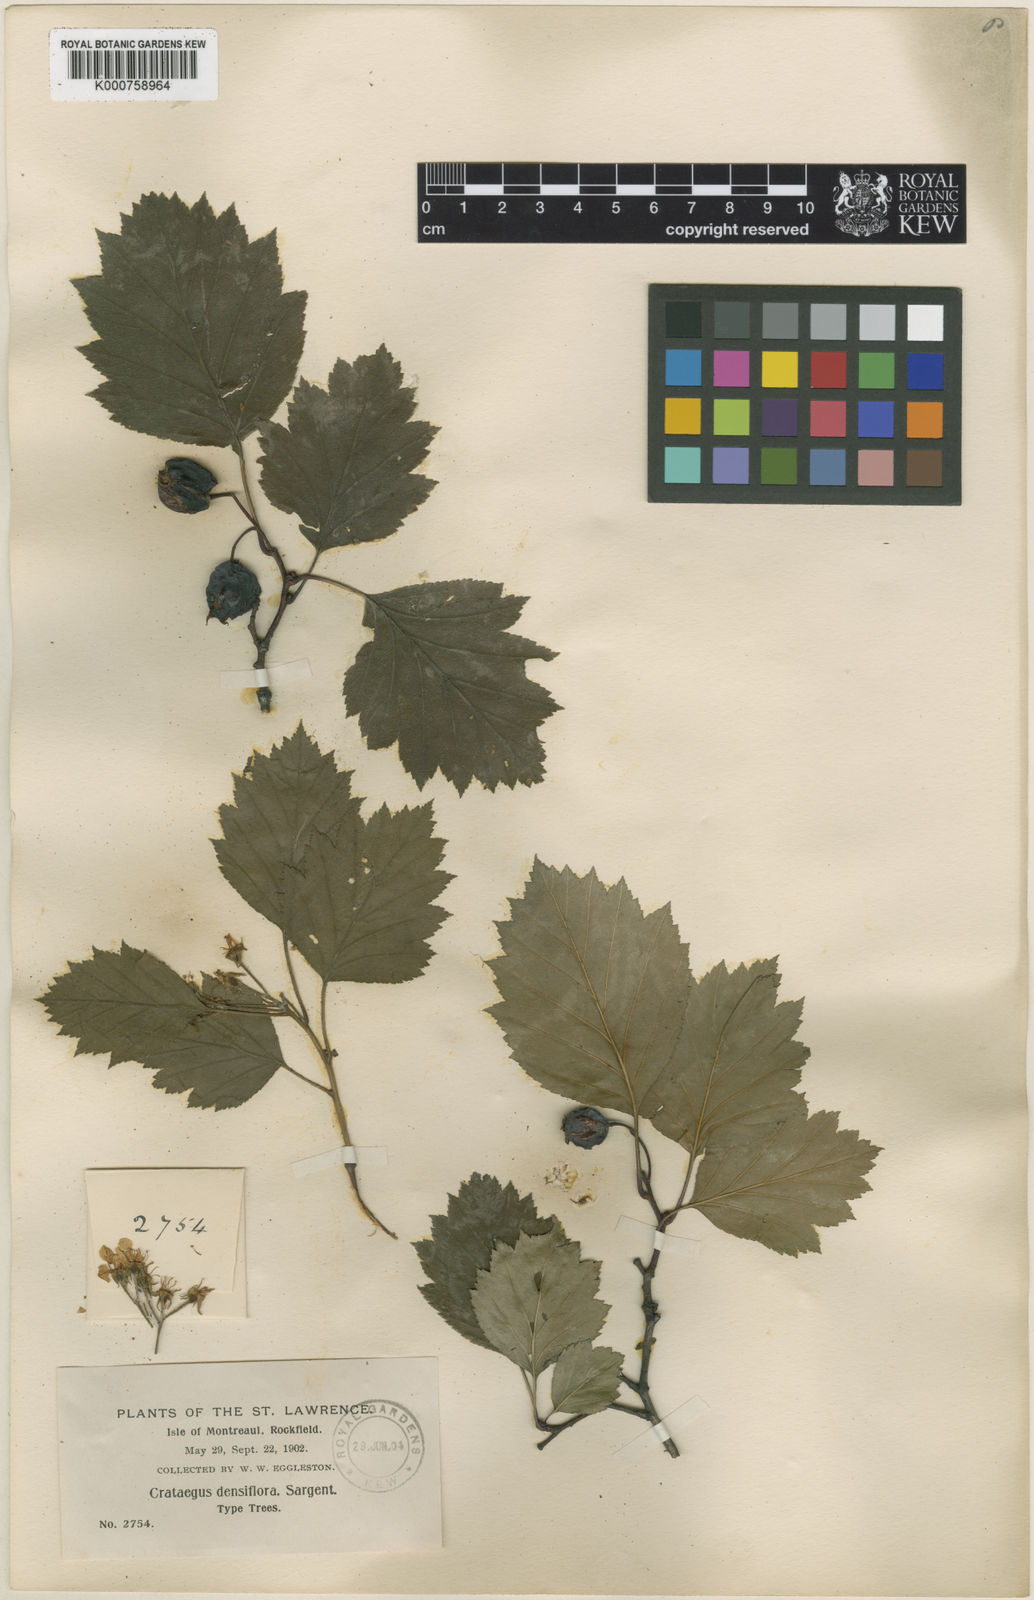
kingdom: Plantae
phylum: Tracheophyta
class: Magnoliopsida
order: Rosales
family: Rosaceae
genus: Crataegus
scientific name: Crataegus flabellata
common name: Bosc's hawthorn
